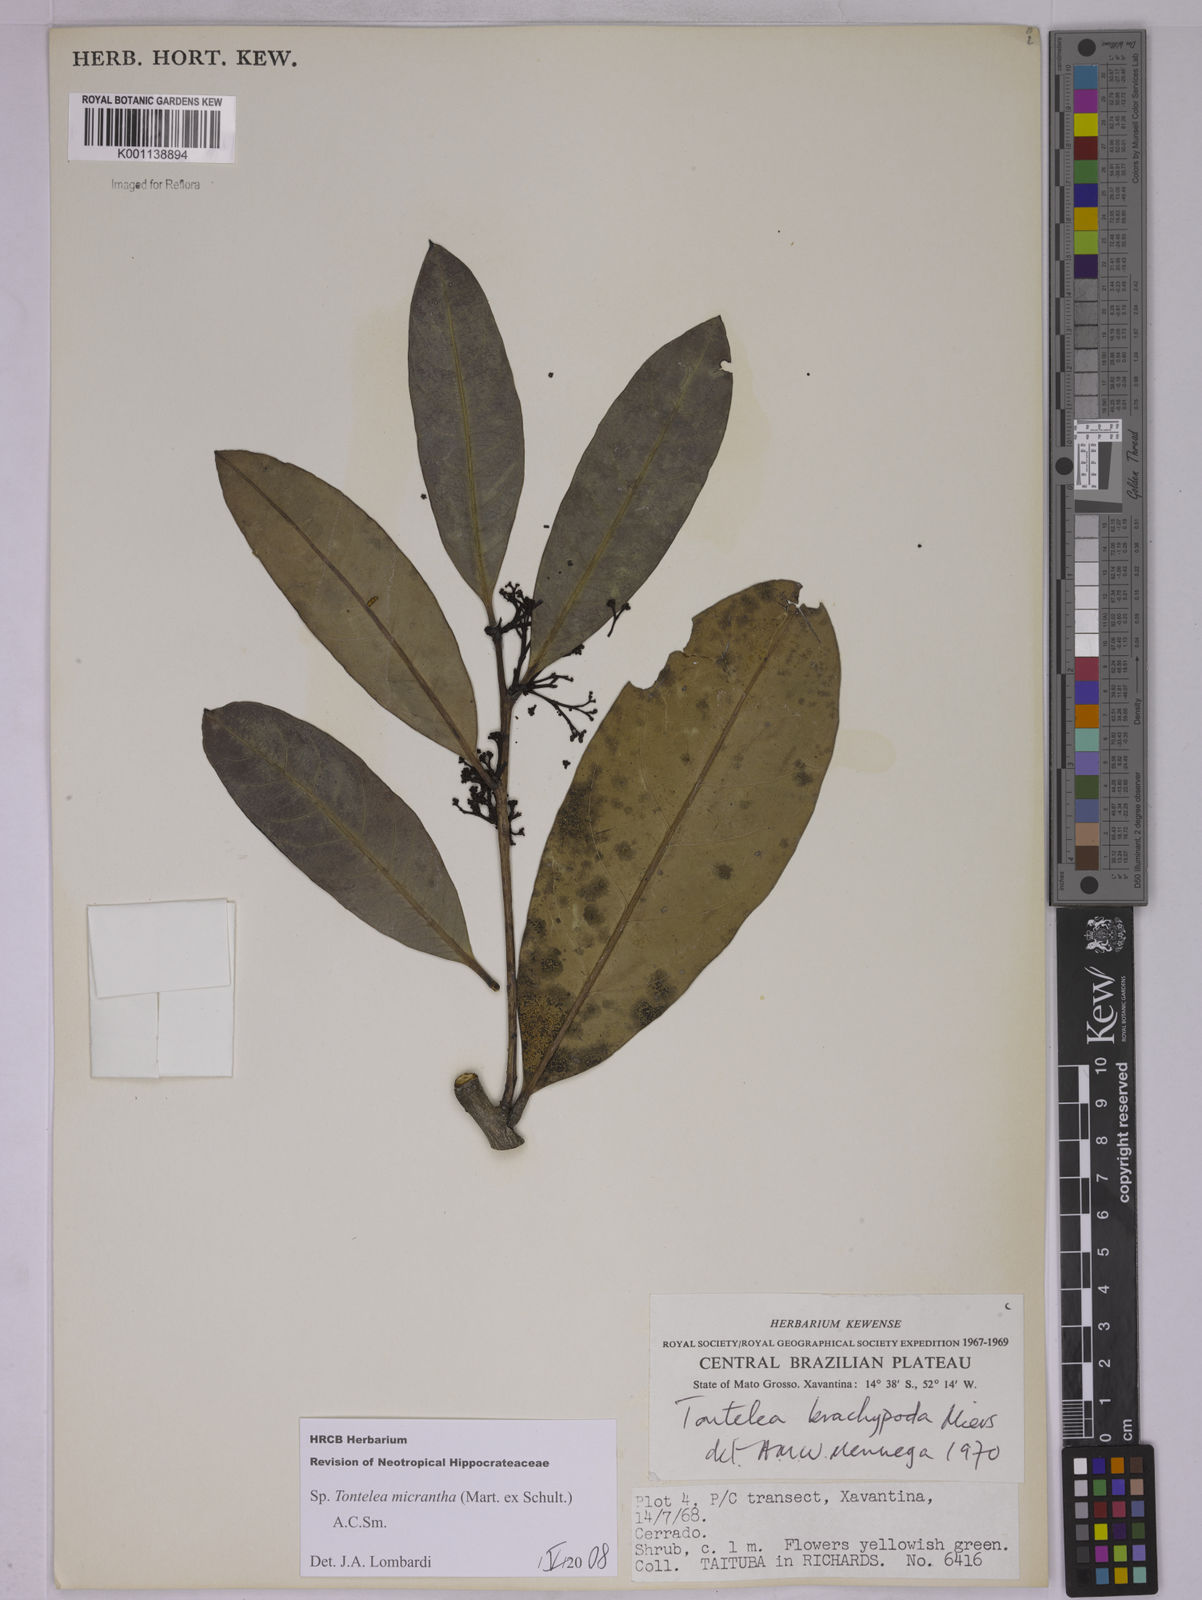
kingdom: Plantae
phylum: Tracheophyta
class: Magnoliopsida
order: Celastrales
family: Celastraceae
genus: Tontelea
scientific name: Tontelea micrantha
